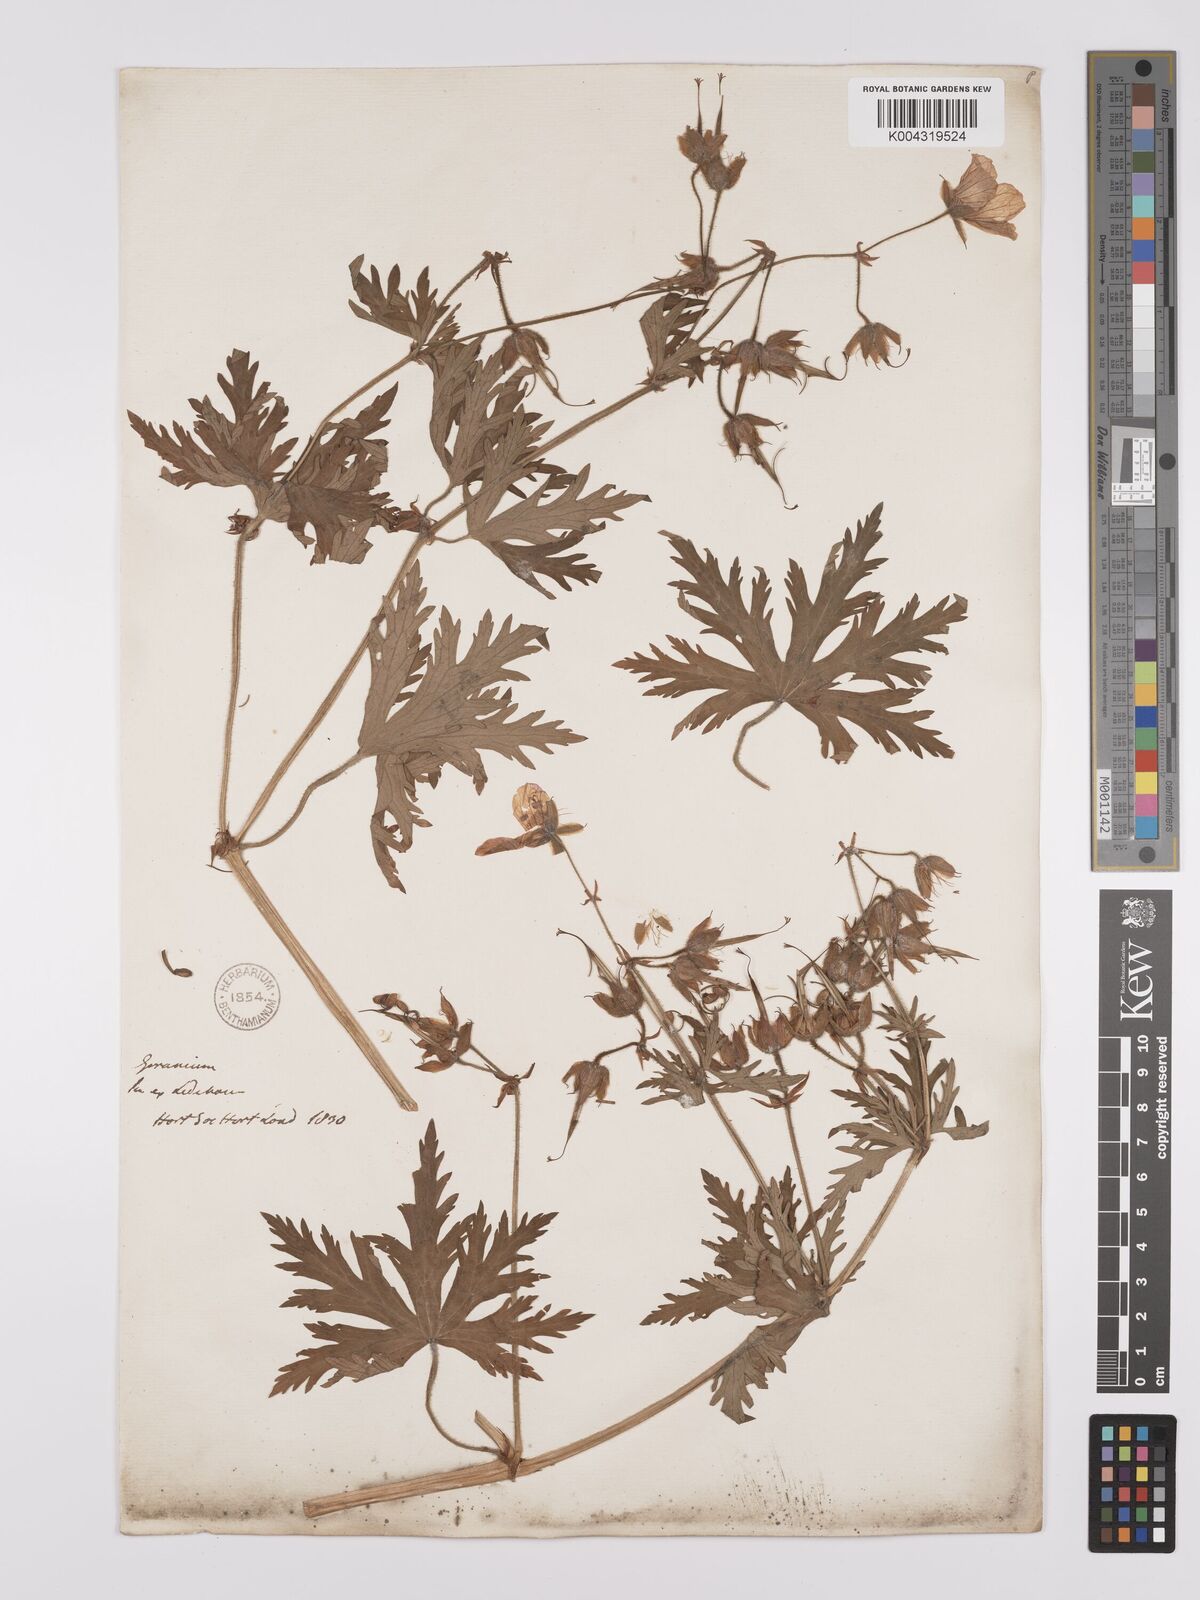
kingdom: Plantae
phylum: Tracheophyta
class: Magnoliopsida
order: Geraniales
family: Geraniaceae
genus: Geranium
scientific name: Geranium pratense
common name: Meadow crane's-bill
